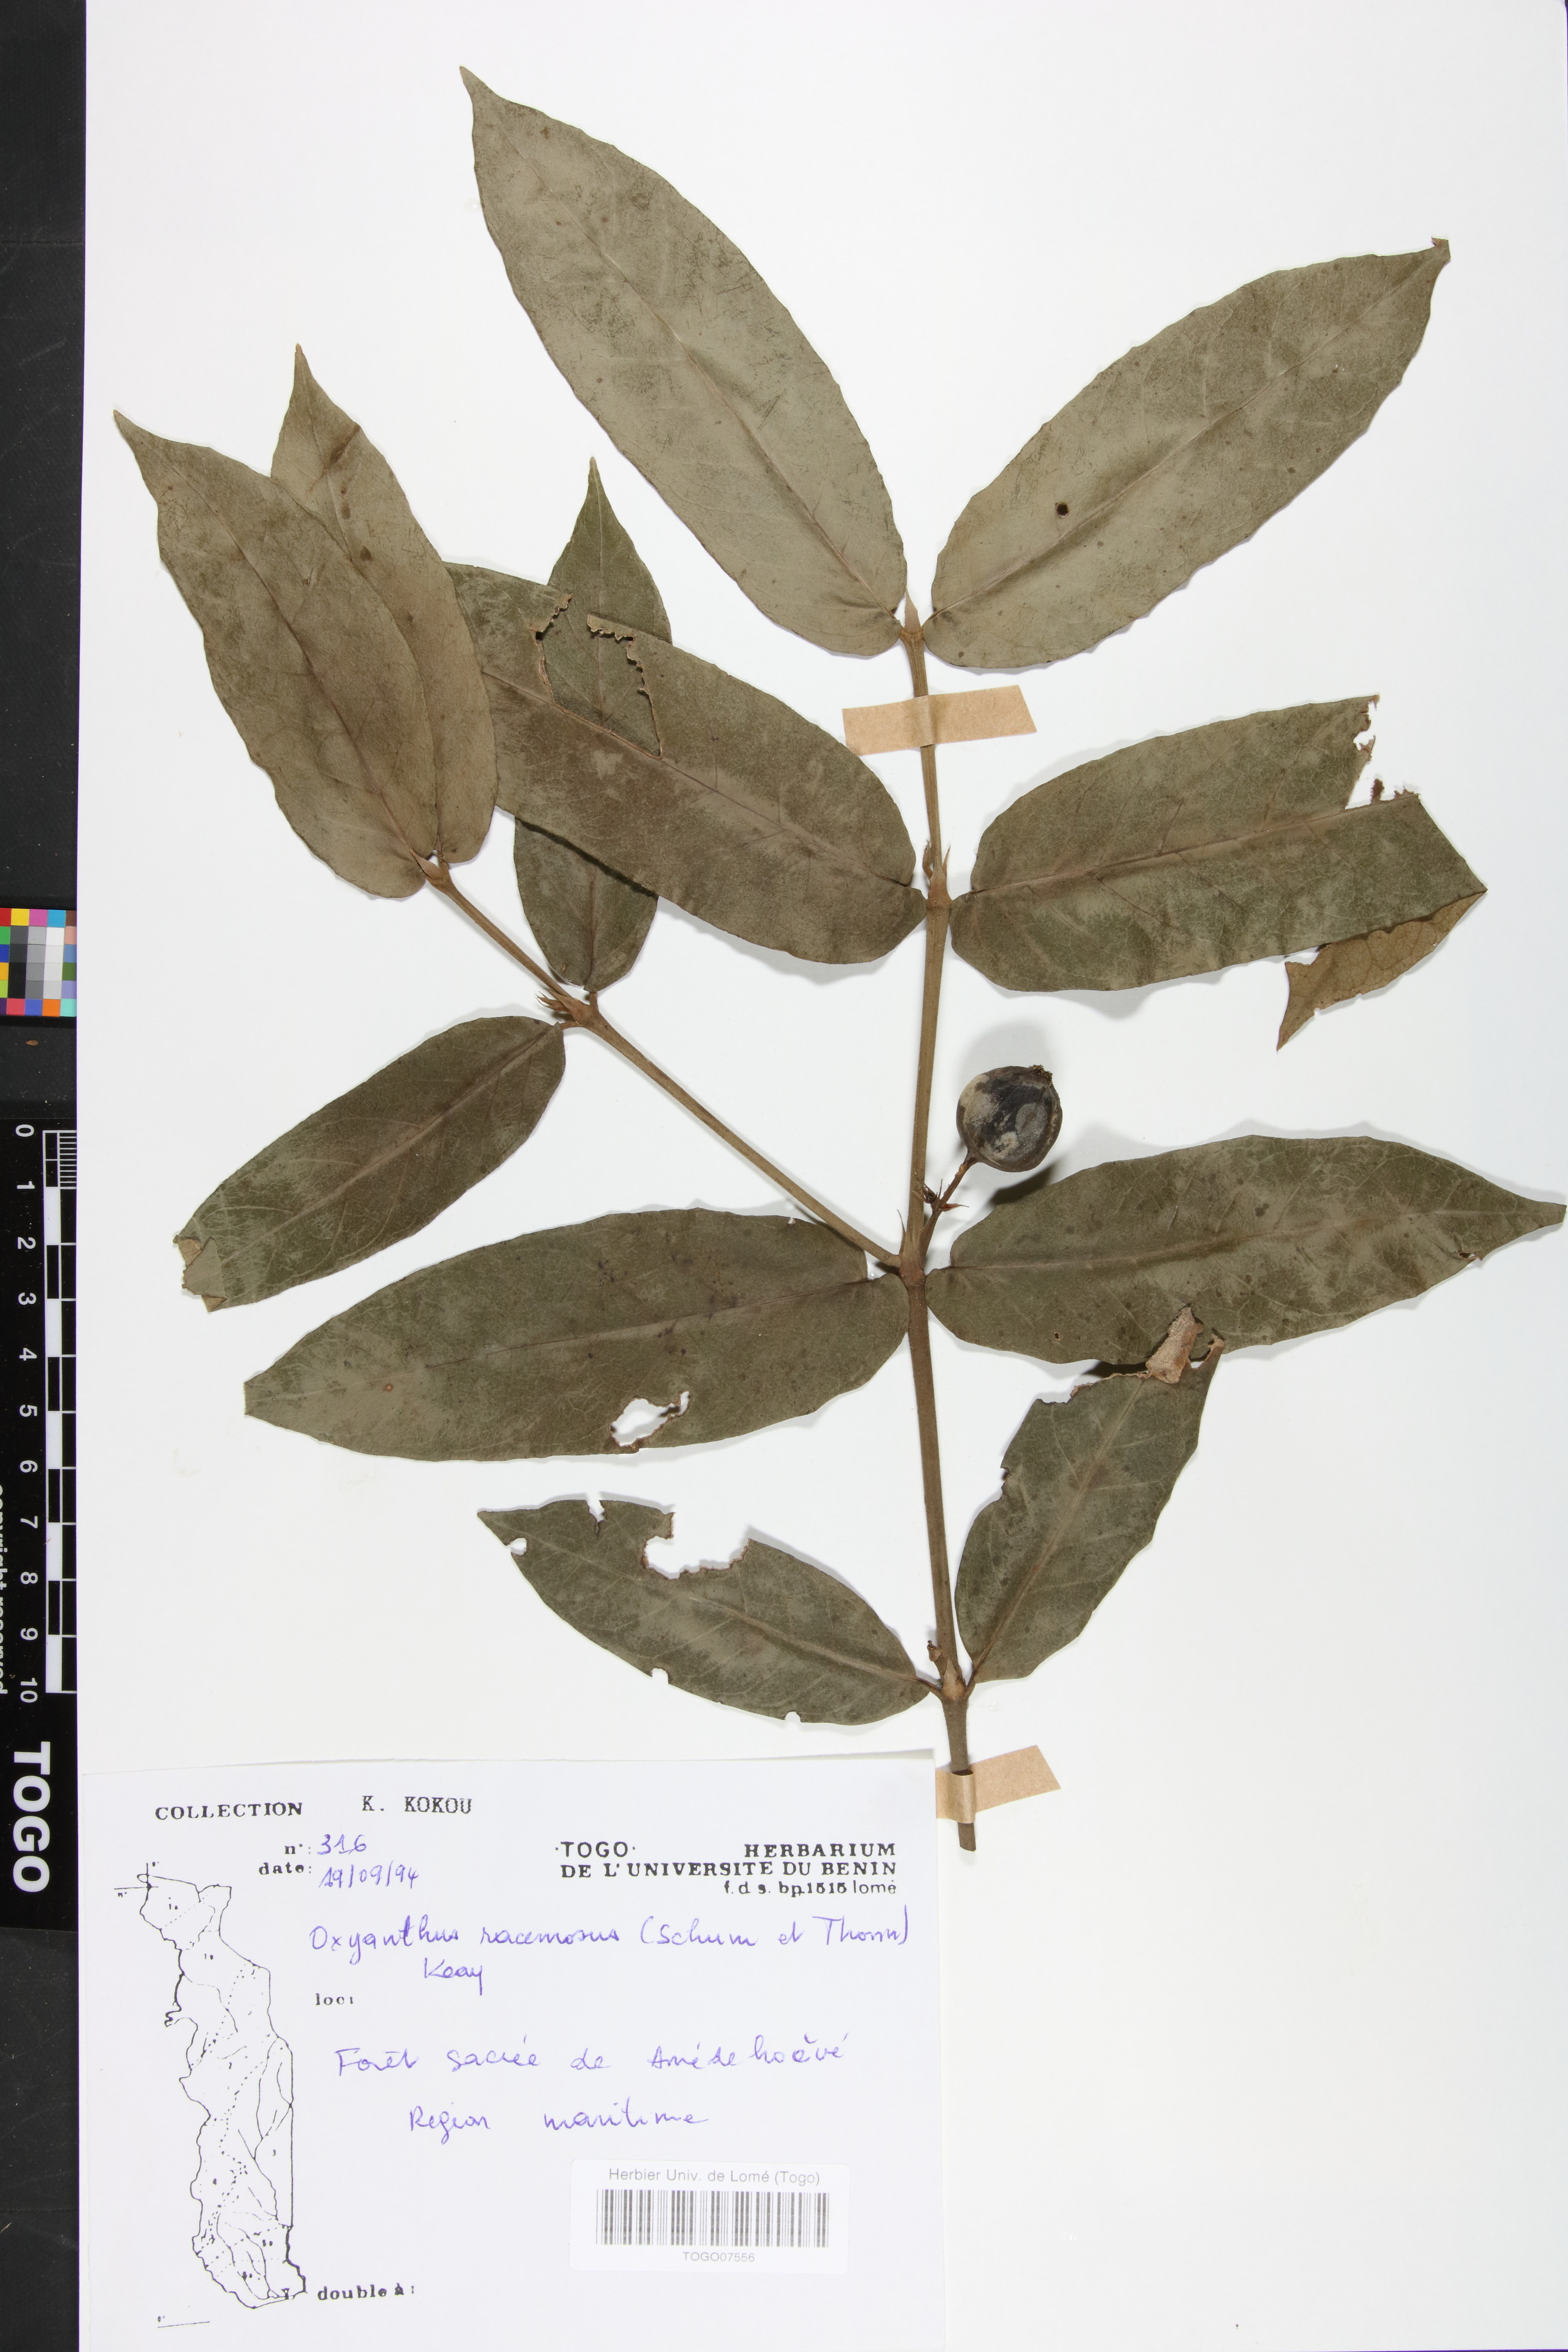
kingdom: Plantae
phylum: Tracheophyta
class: Magnoliopsida
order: Gentianales
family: Rubiaceae
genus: Oxyanthus
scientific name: Oxyanthus racemosus
